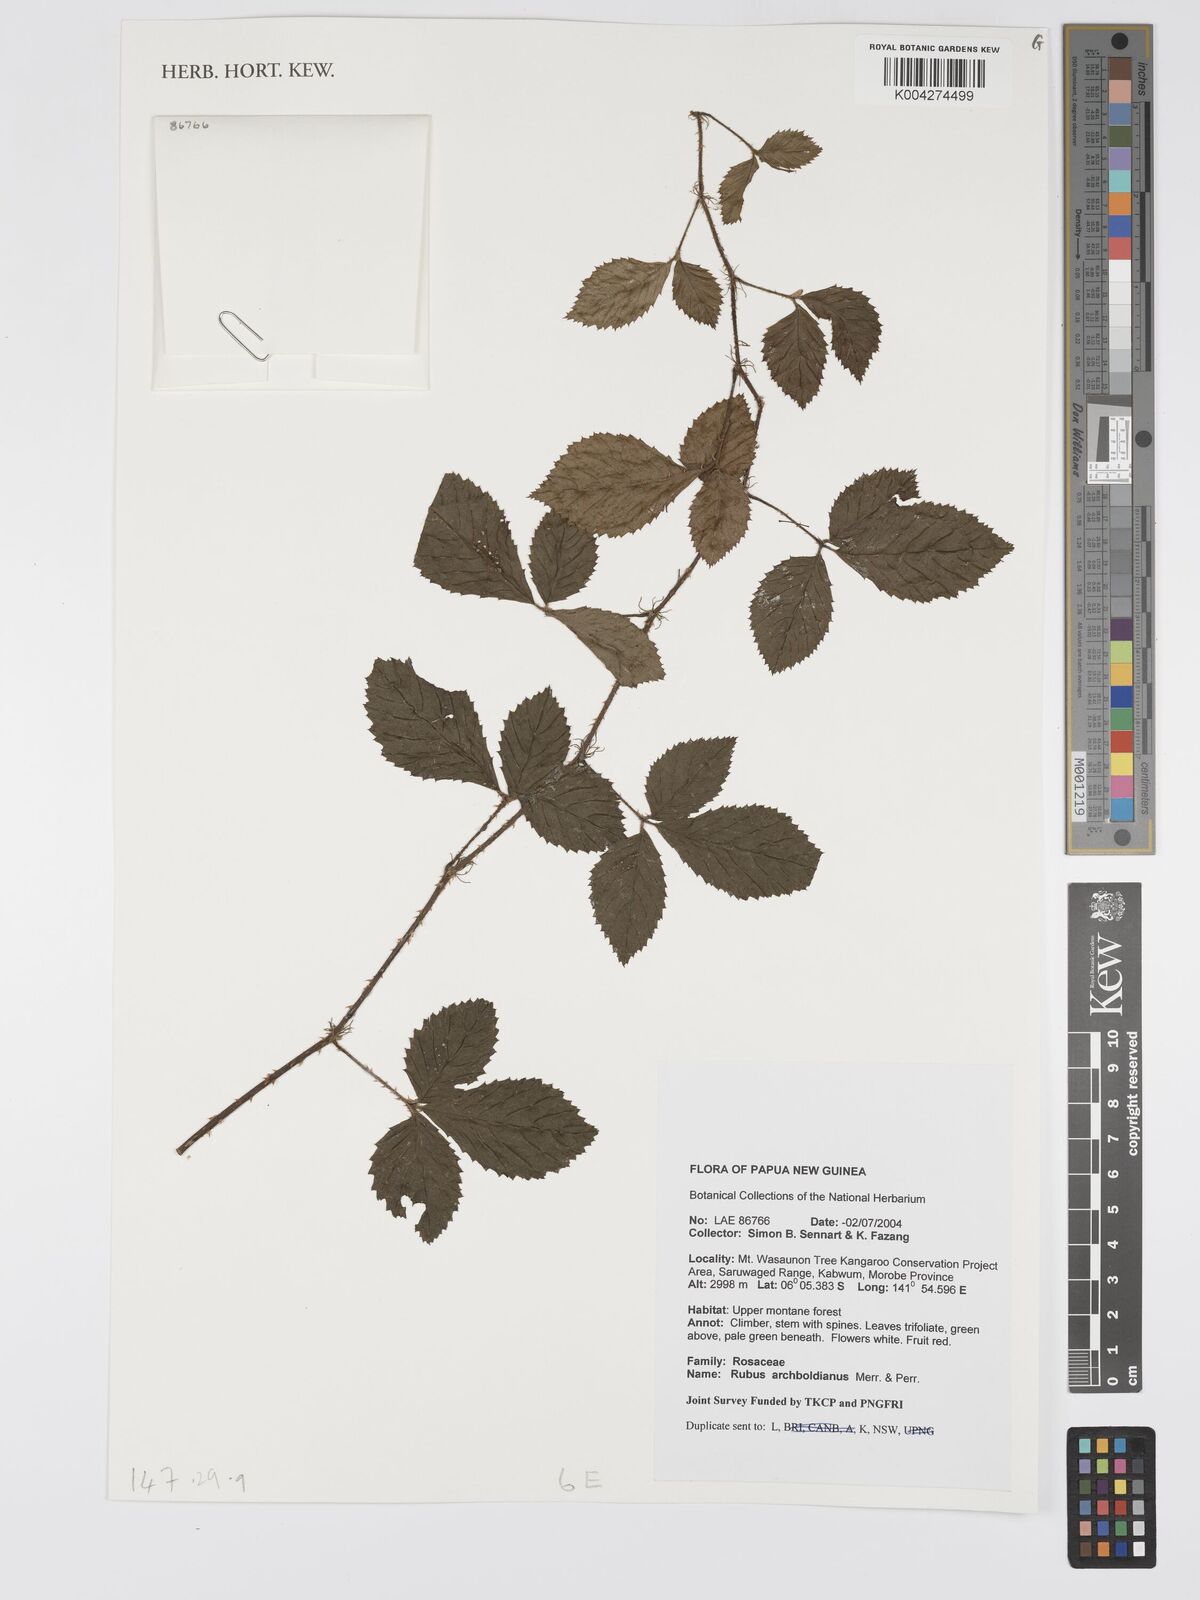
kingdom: Plantae
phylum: Tracheophyta
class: Magnoliopsida
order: Rosales
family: Rosaceae
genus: Rubus
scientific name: Rubus archboldianus
